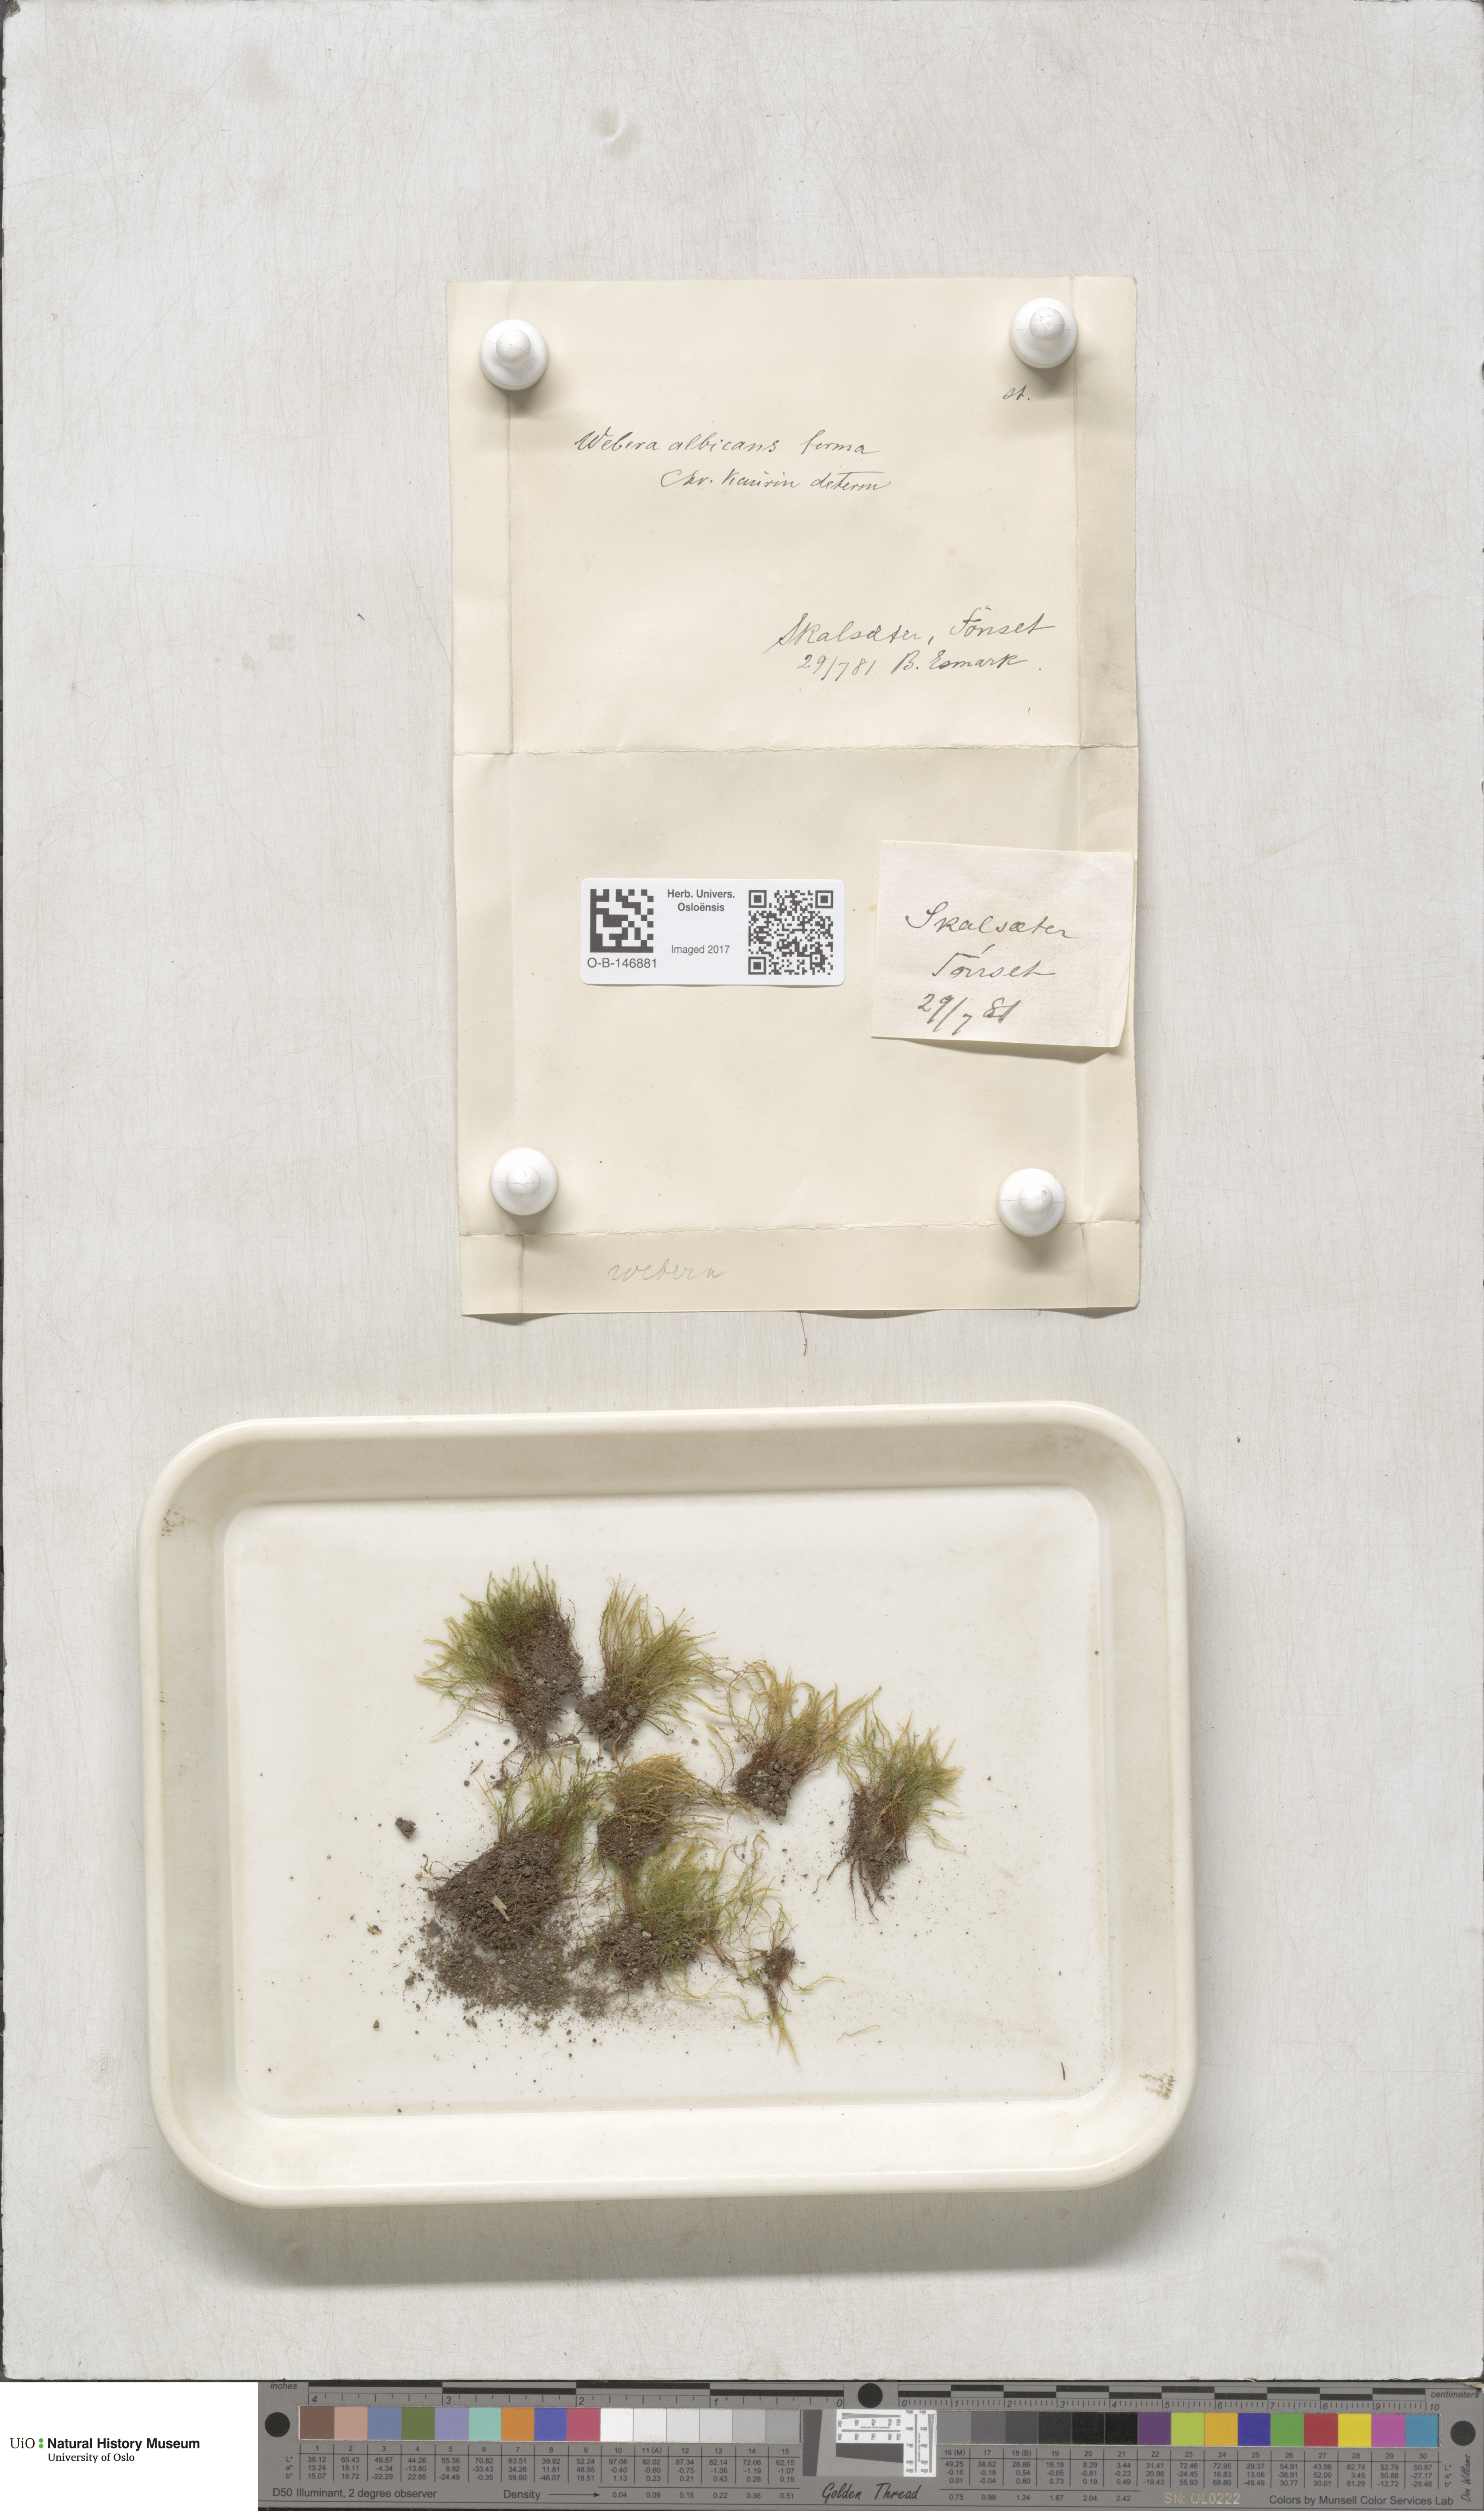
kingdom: Plantae
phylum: Bryophyta
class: Bryopsida
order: Bryales
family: Mniaceae
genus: Pohlia
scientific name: Pohlia wahlenbergii
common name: Wahlenberg's nodding moss
